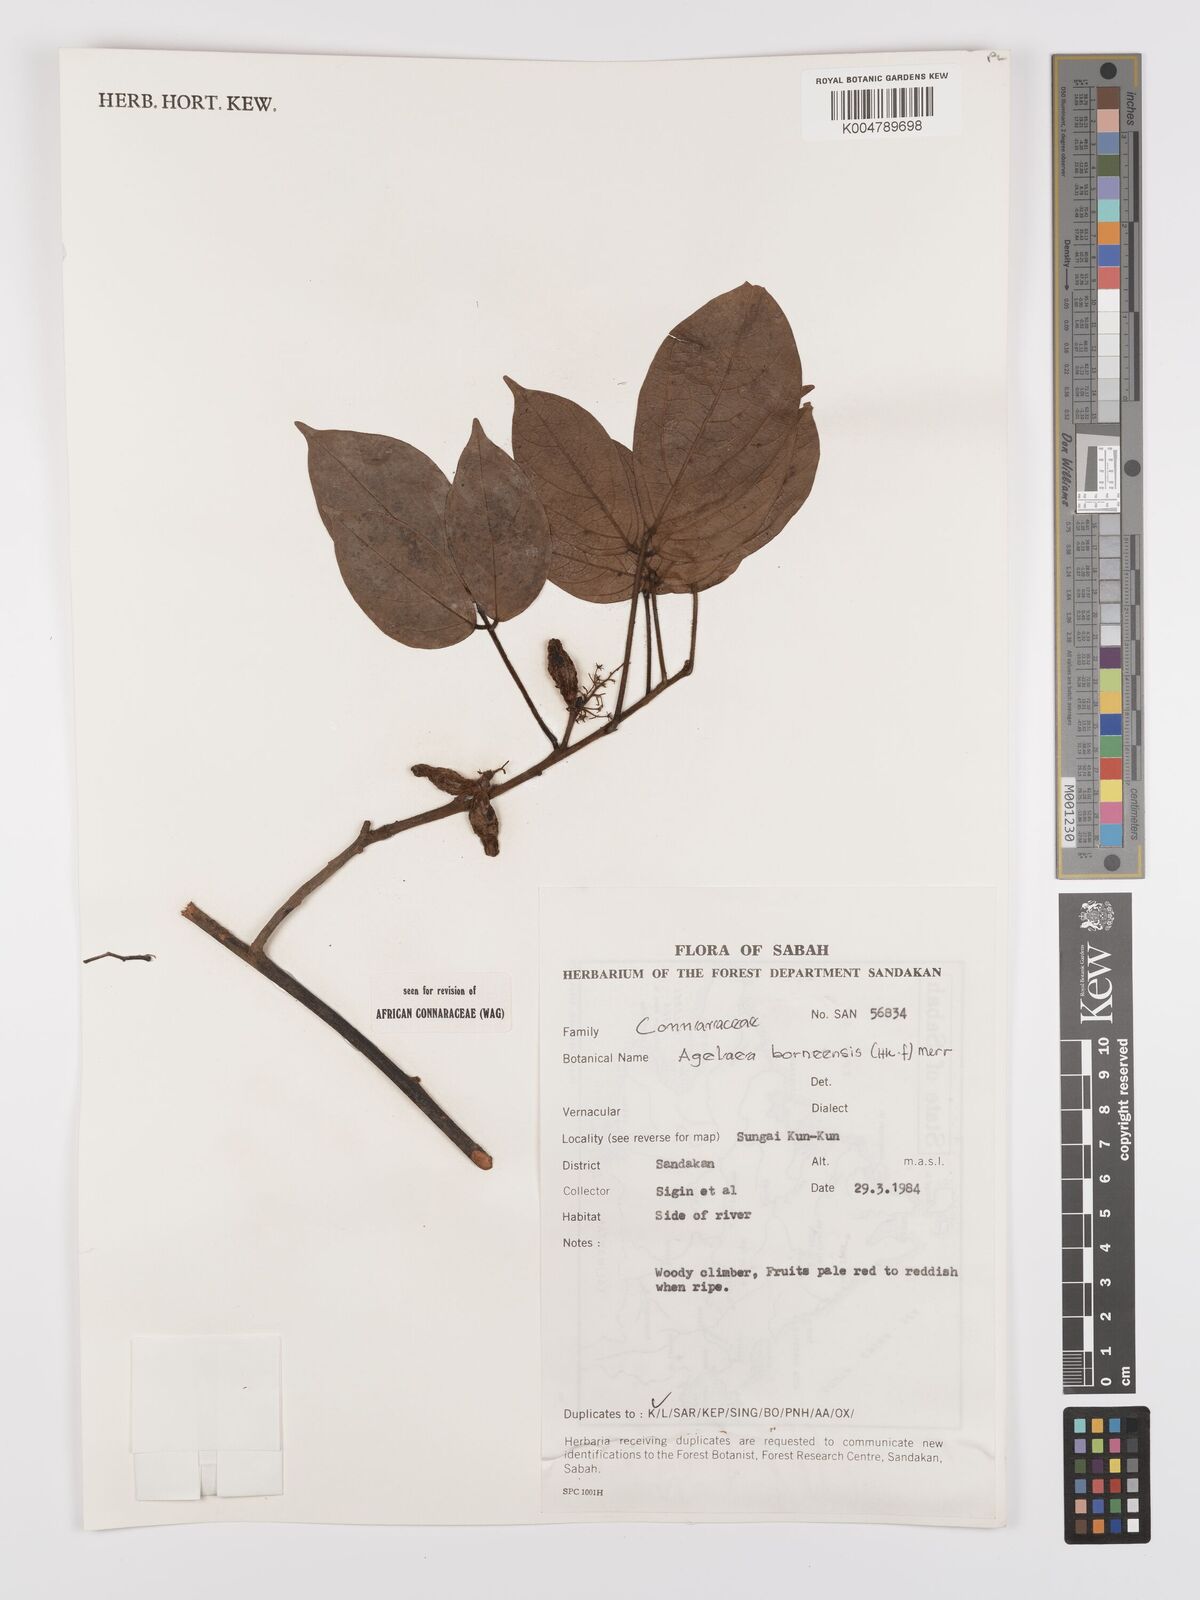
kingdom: Plantae
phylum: Tracheophyta
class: Magnoliopsida
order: Oxalidales
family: Connaraceae
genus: Agelaea
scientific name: Agelaea borneensis
